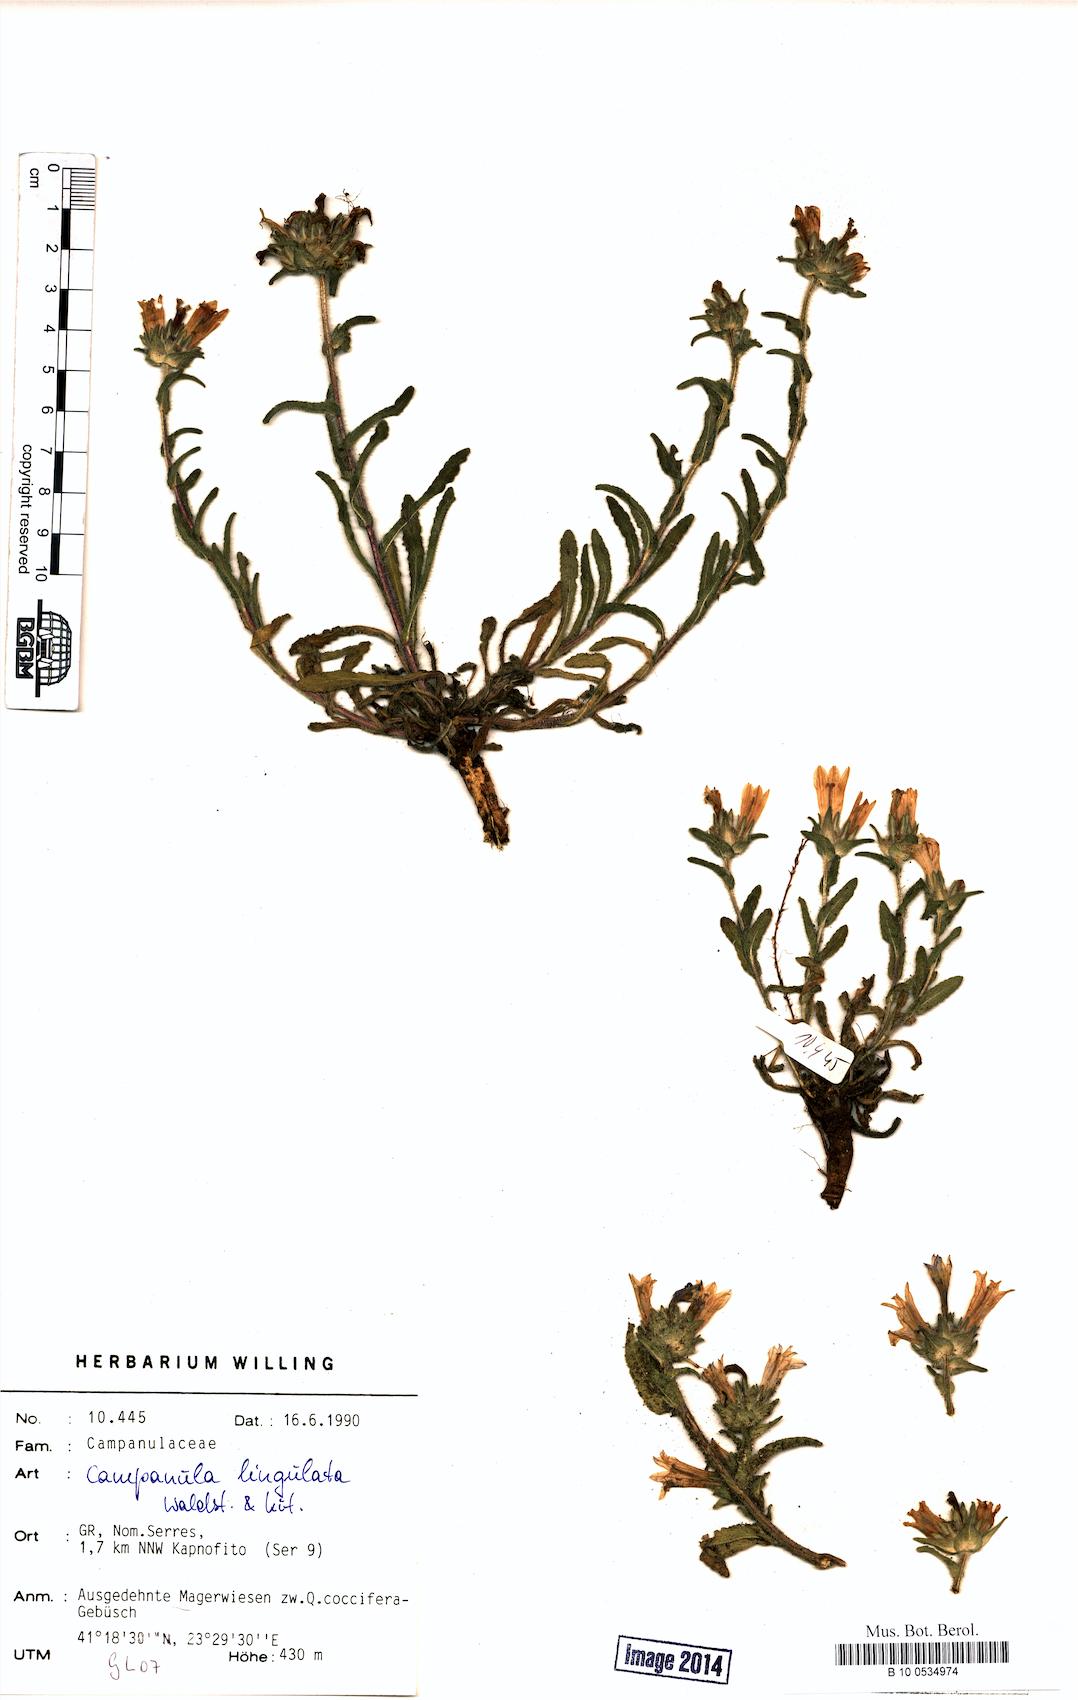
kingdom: Plantae
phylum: Tracheophyta
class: Magnoliopsida
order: Asterales
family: Campanulaceae
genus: Campanula
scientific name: Campanula lingulata
